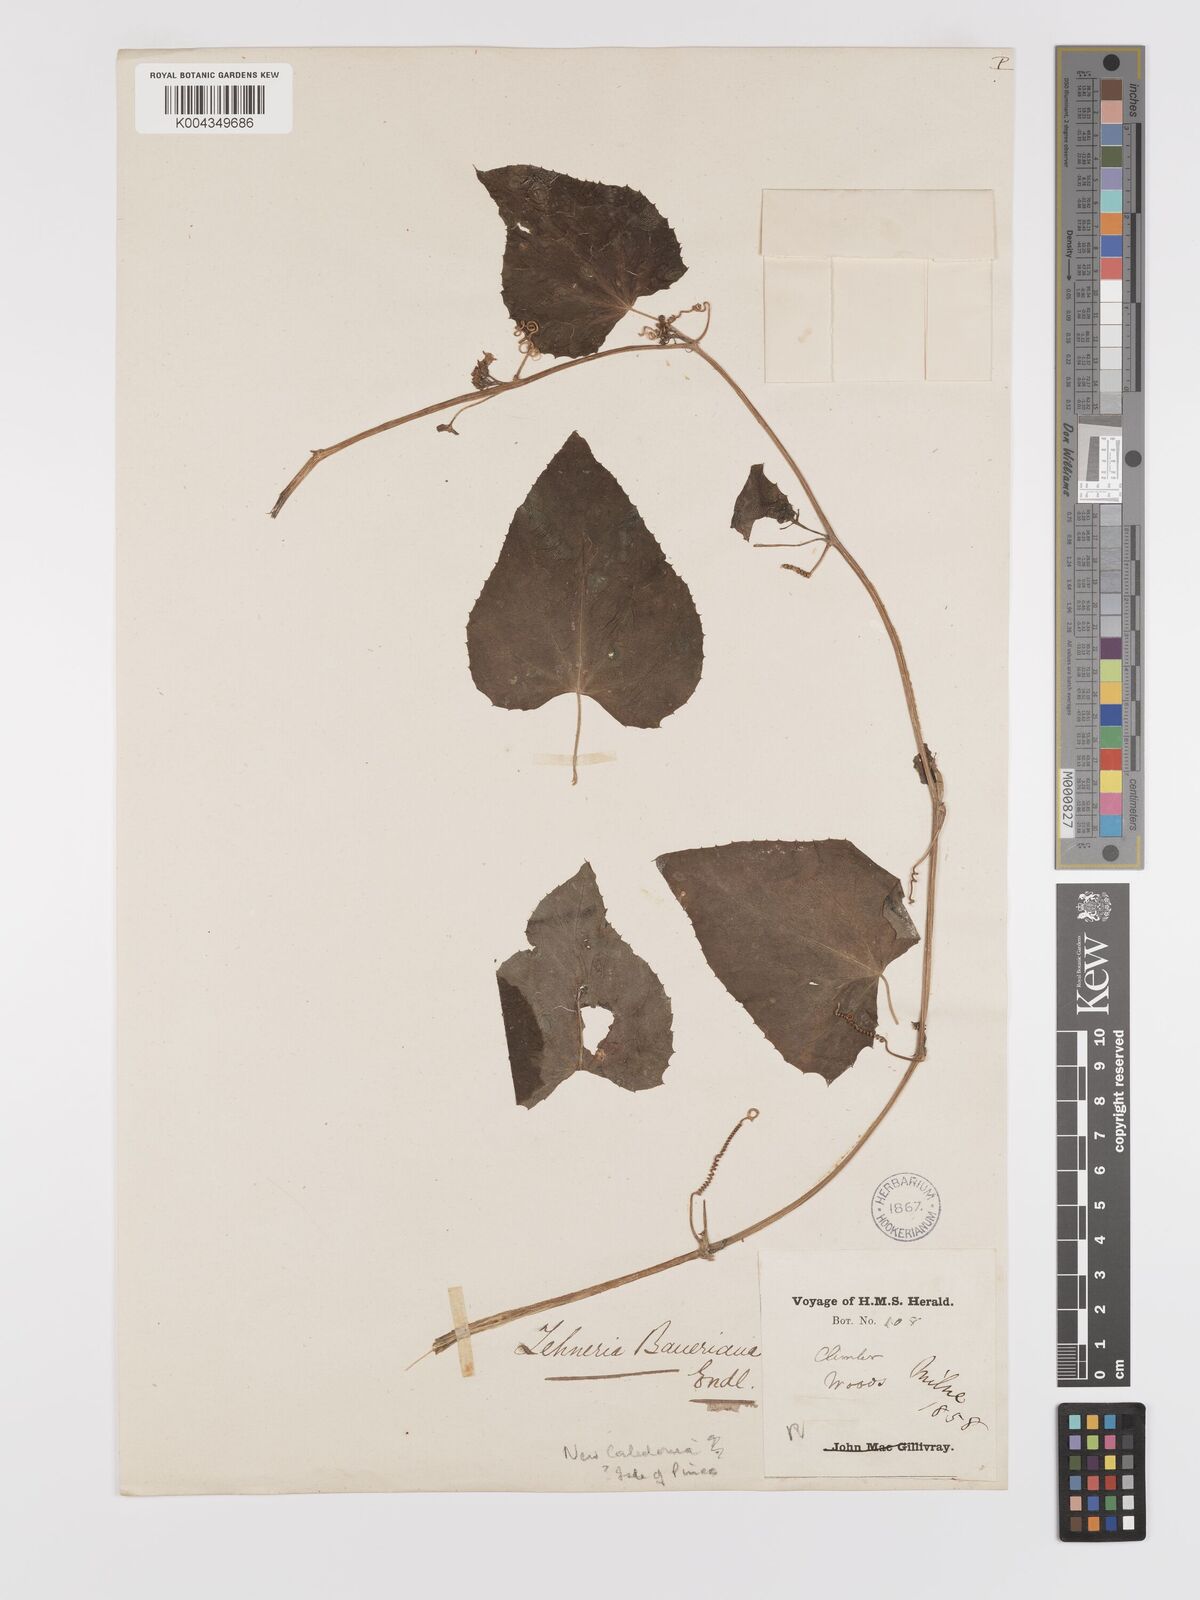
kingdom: Plantae
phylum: Tracheophyta
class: Magnoliopsida
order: Cucurbitales
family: Cucurbitaceae
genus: Zehneria
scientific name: Zehneria mucronata
